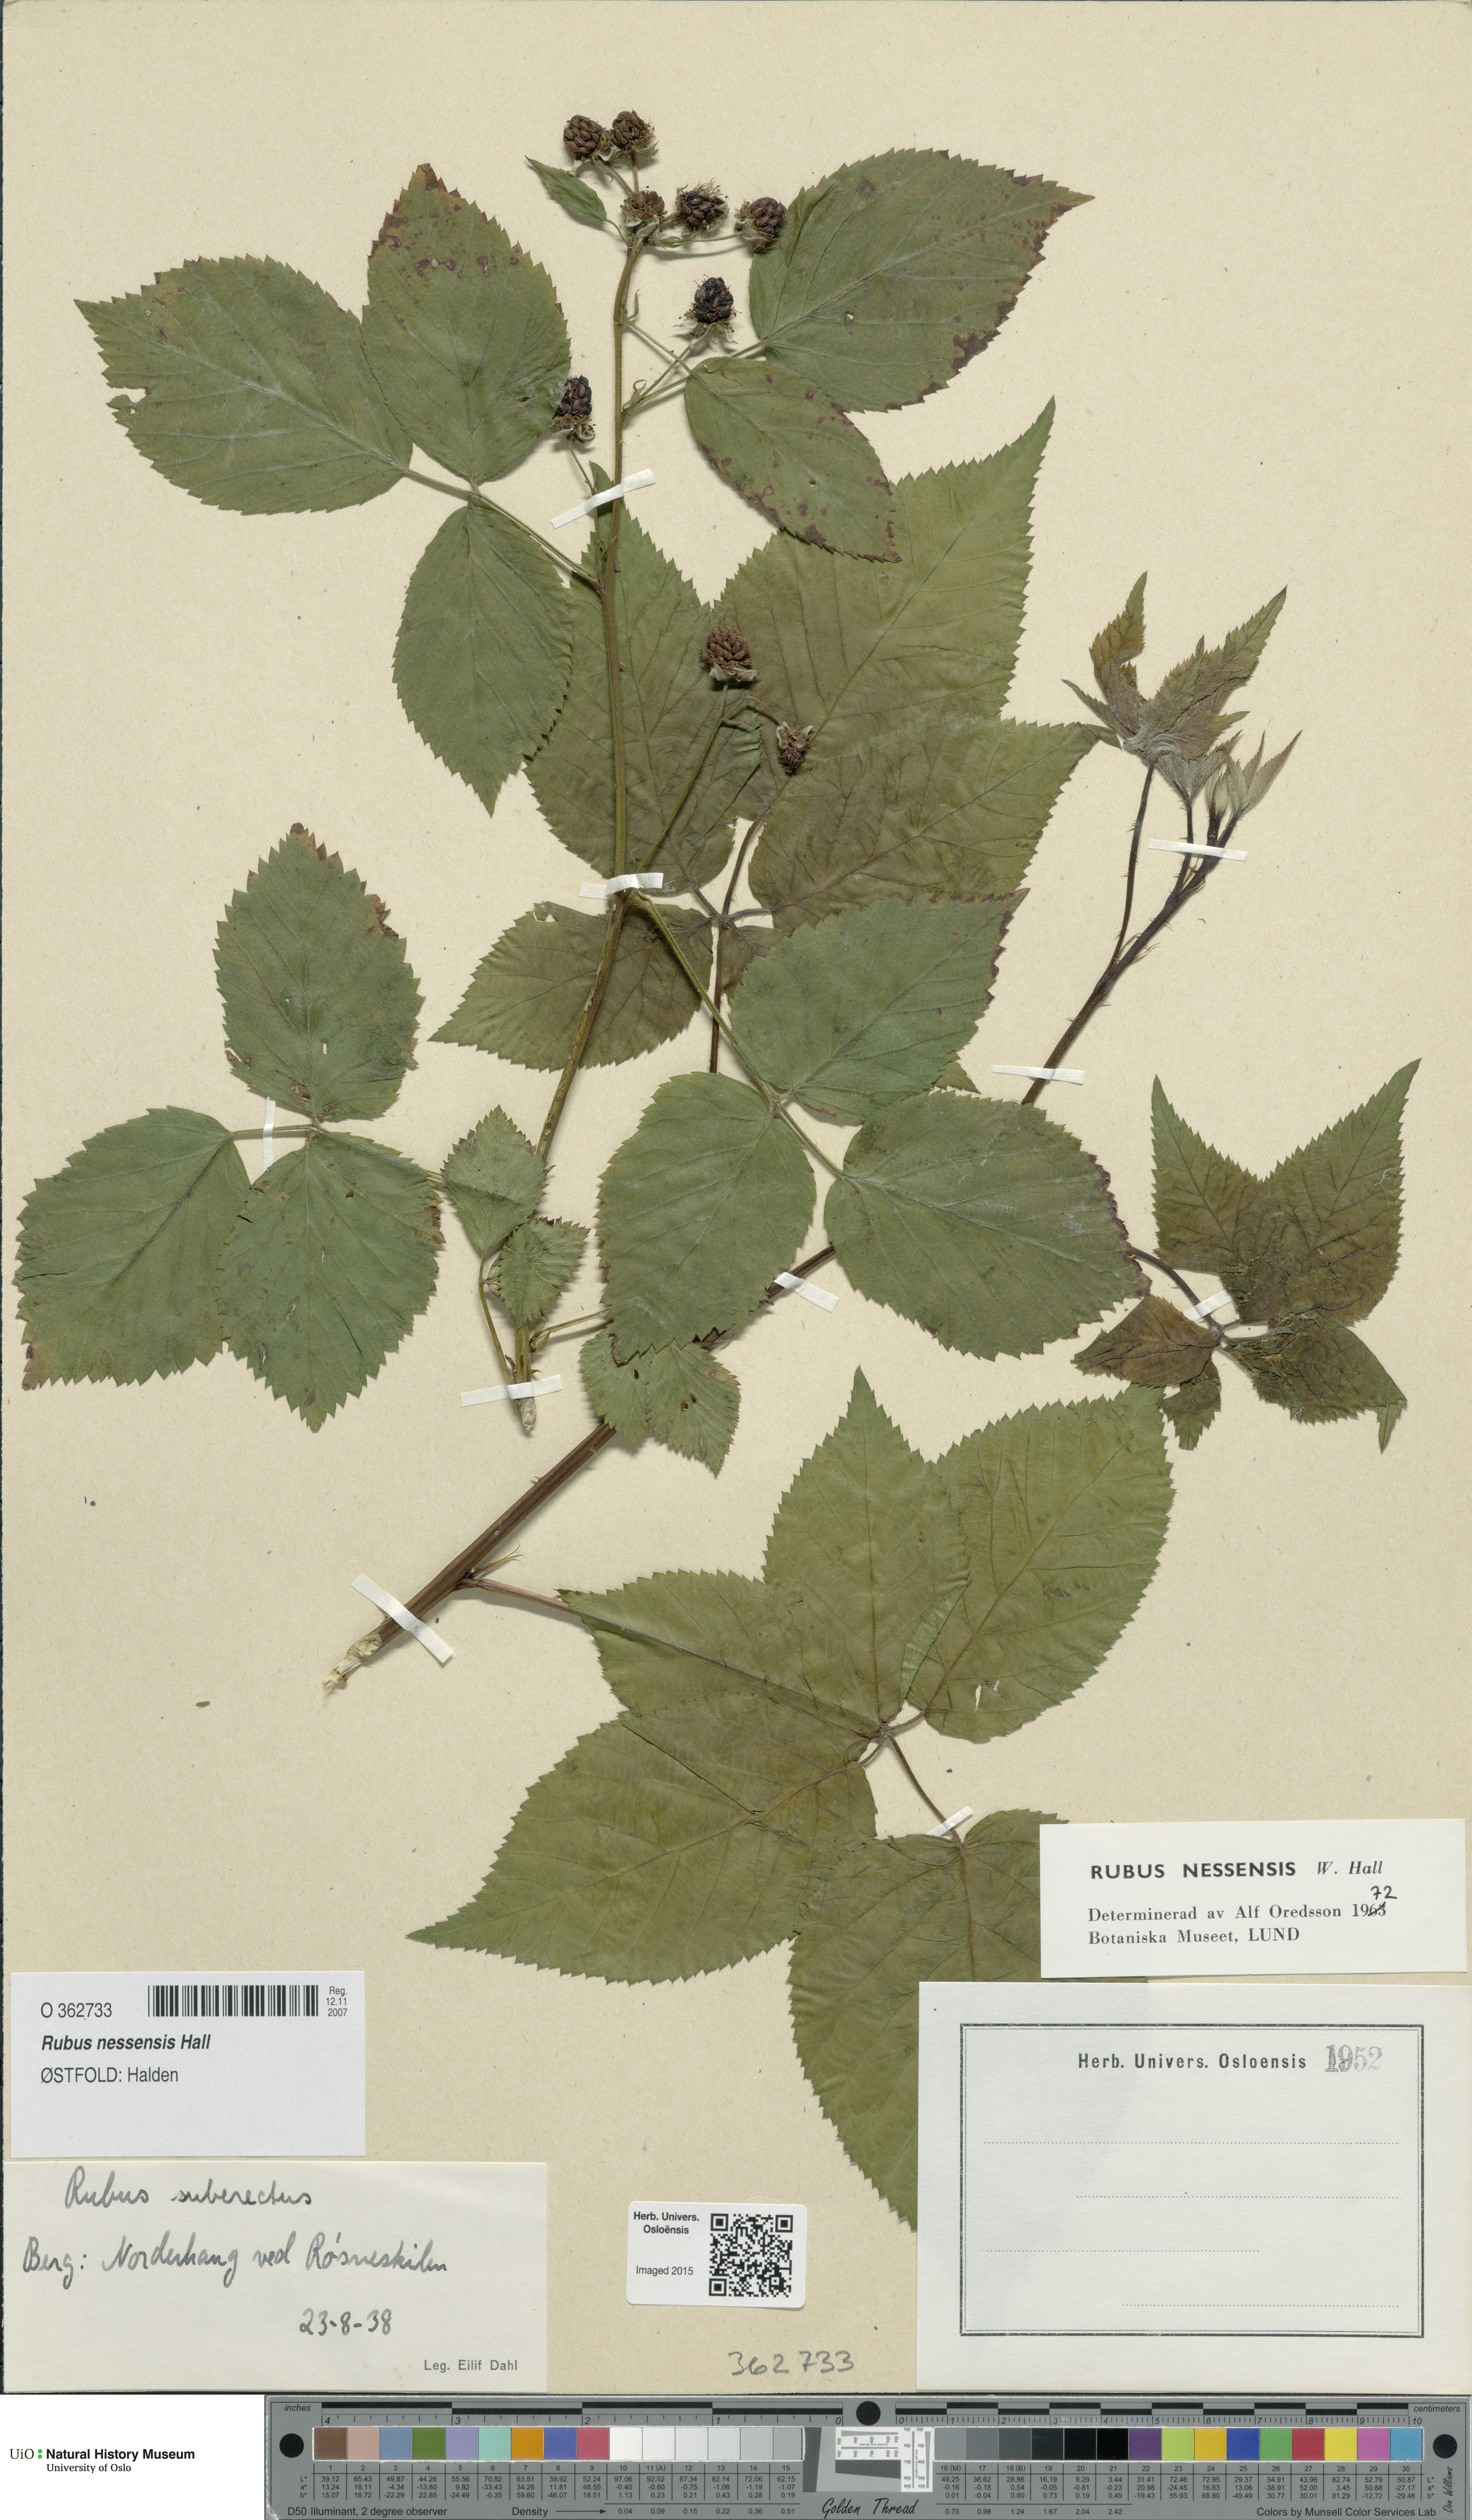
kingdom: Plantae
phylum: Tracheophyta
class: Magnoliopsida
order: Rosales
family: Rosaceae
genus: Rubus
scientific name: Rubus polonicus
